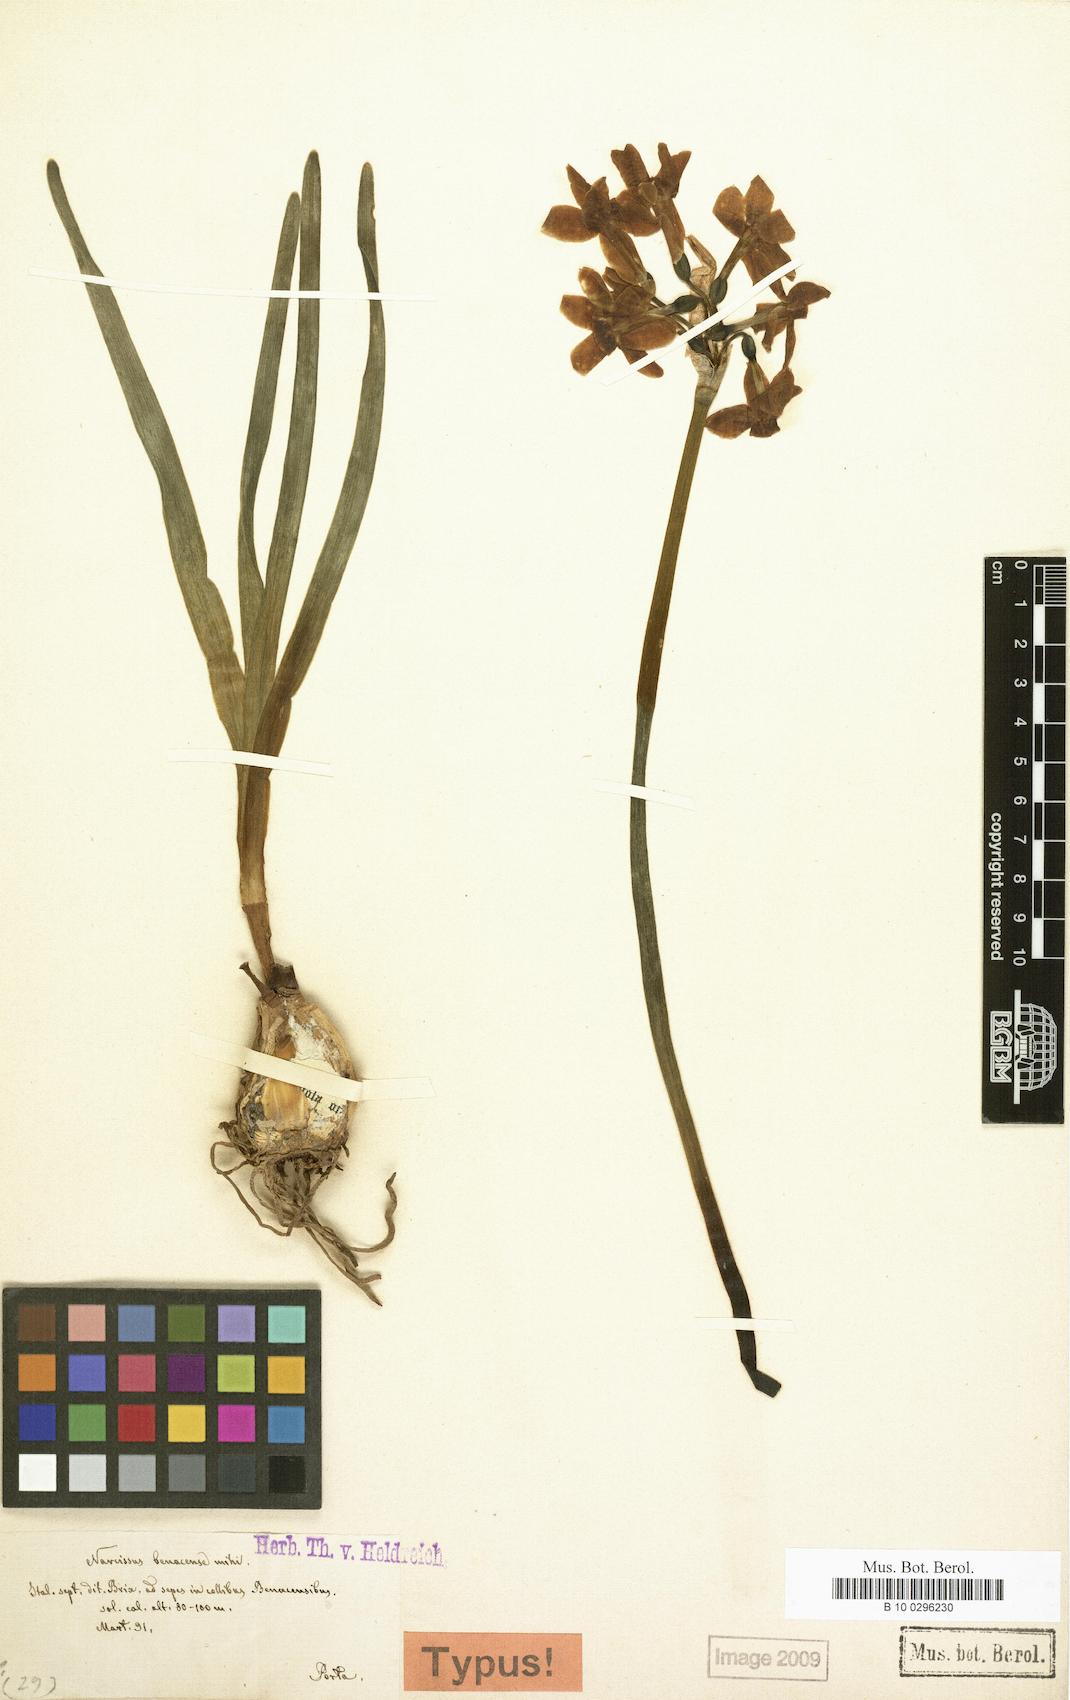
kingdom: Plantae
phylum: Tracheophyta
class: Liliopsida
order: Asparagales
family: Amaryllidaceae
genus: Narcissus
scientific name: Narcissus benacensis
